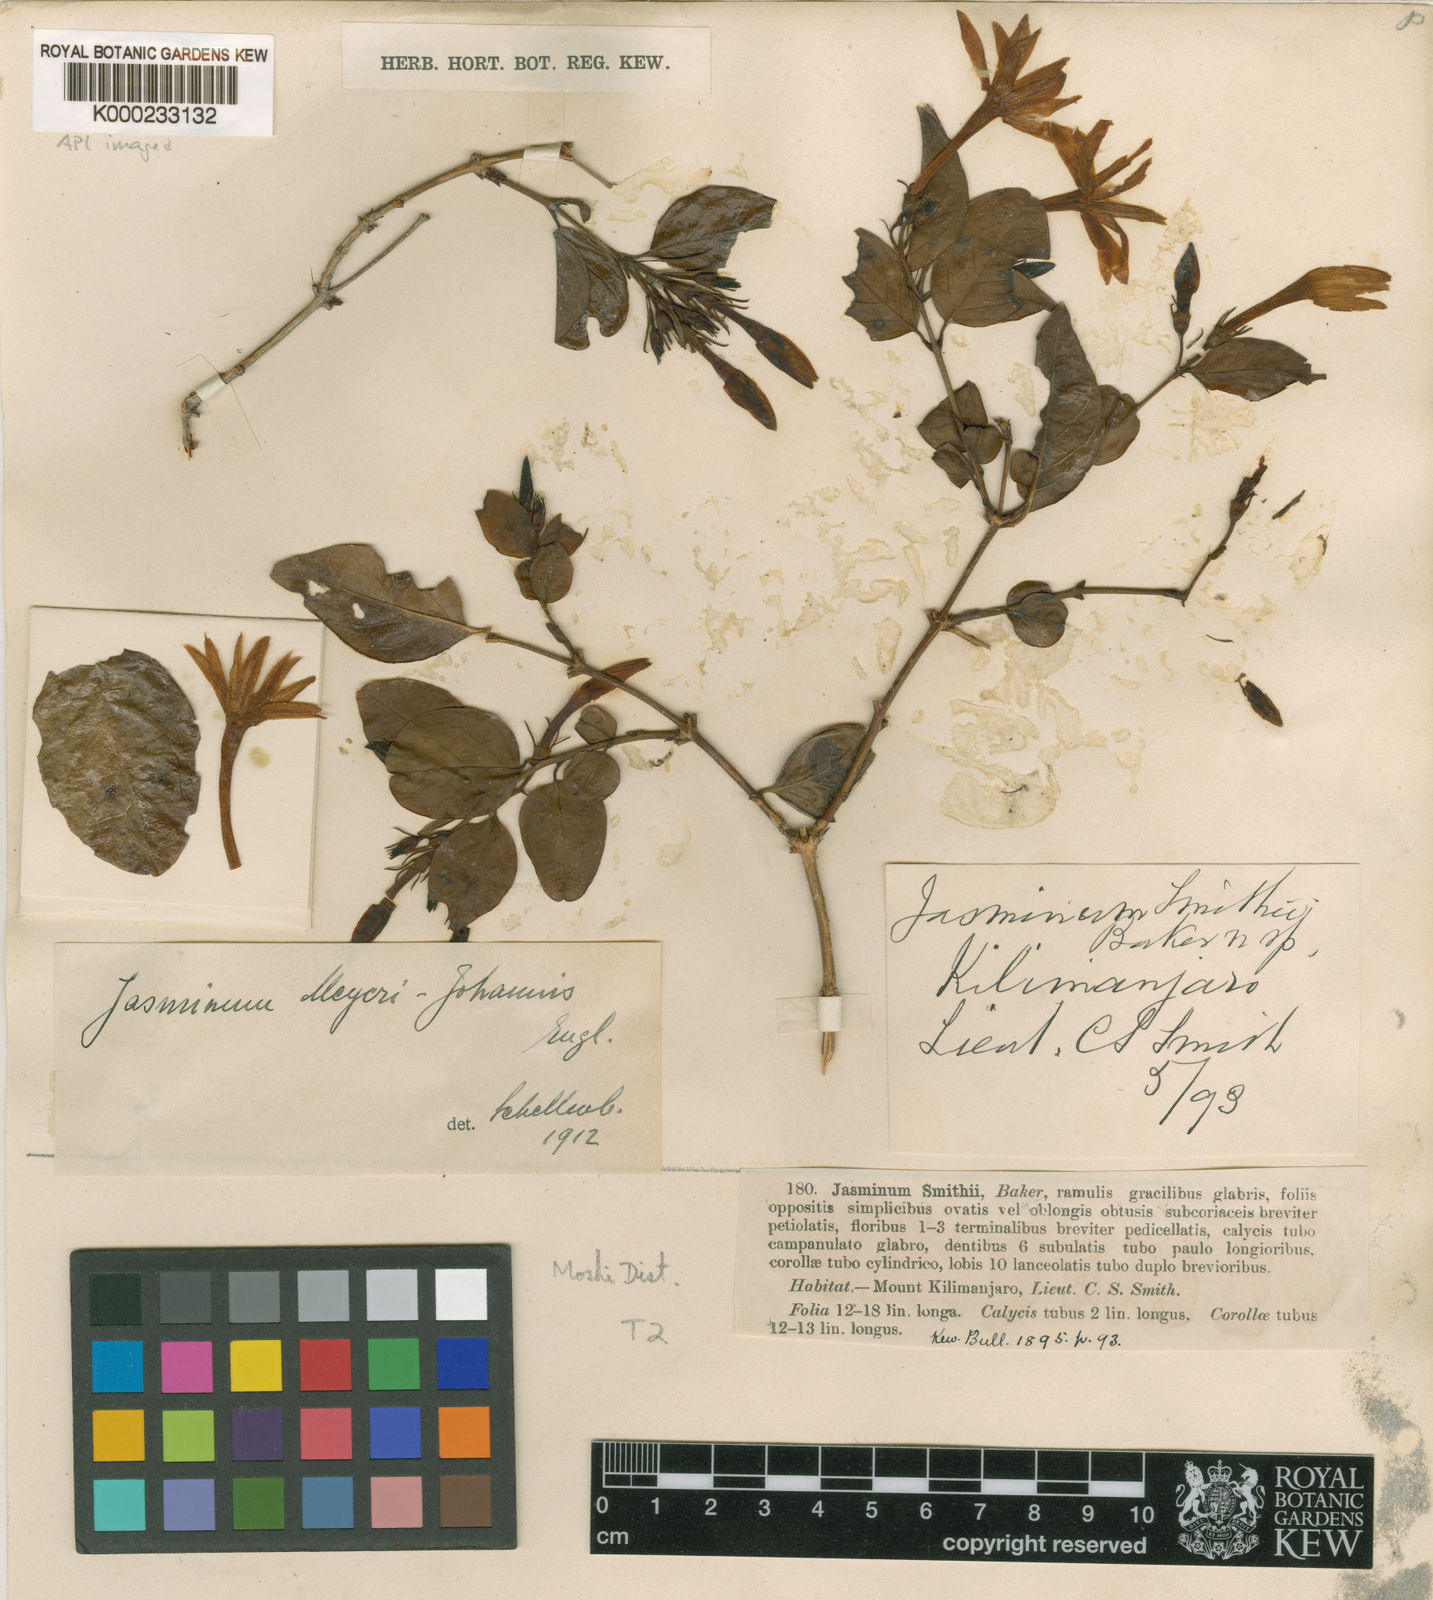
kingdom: Plantae
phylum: Tracheophyta
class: Magnoliopsida
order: Lamiales
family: Oleaceae
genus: Jasminum
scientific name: Jasminum meyeri-johannis
